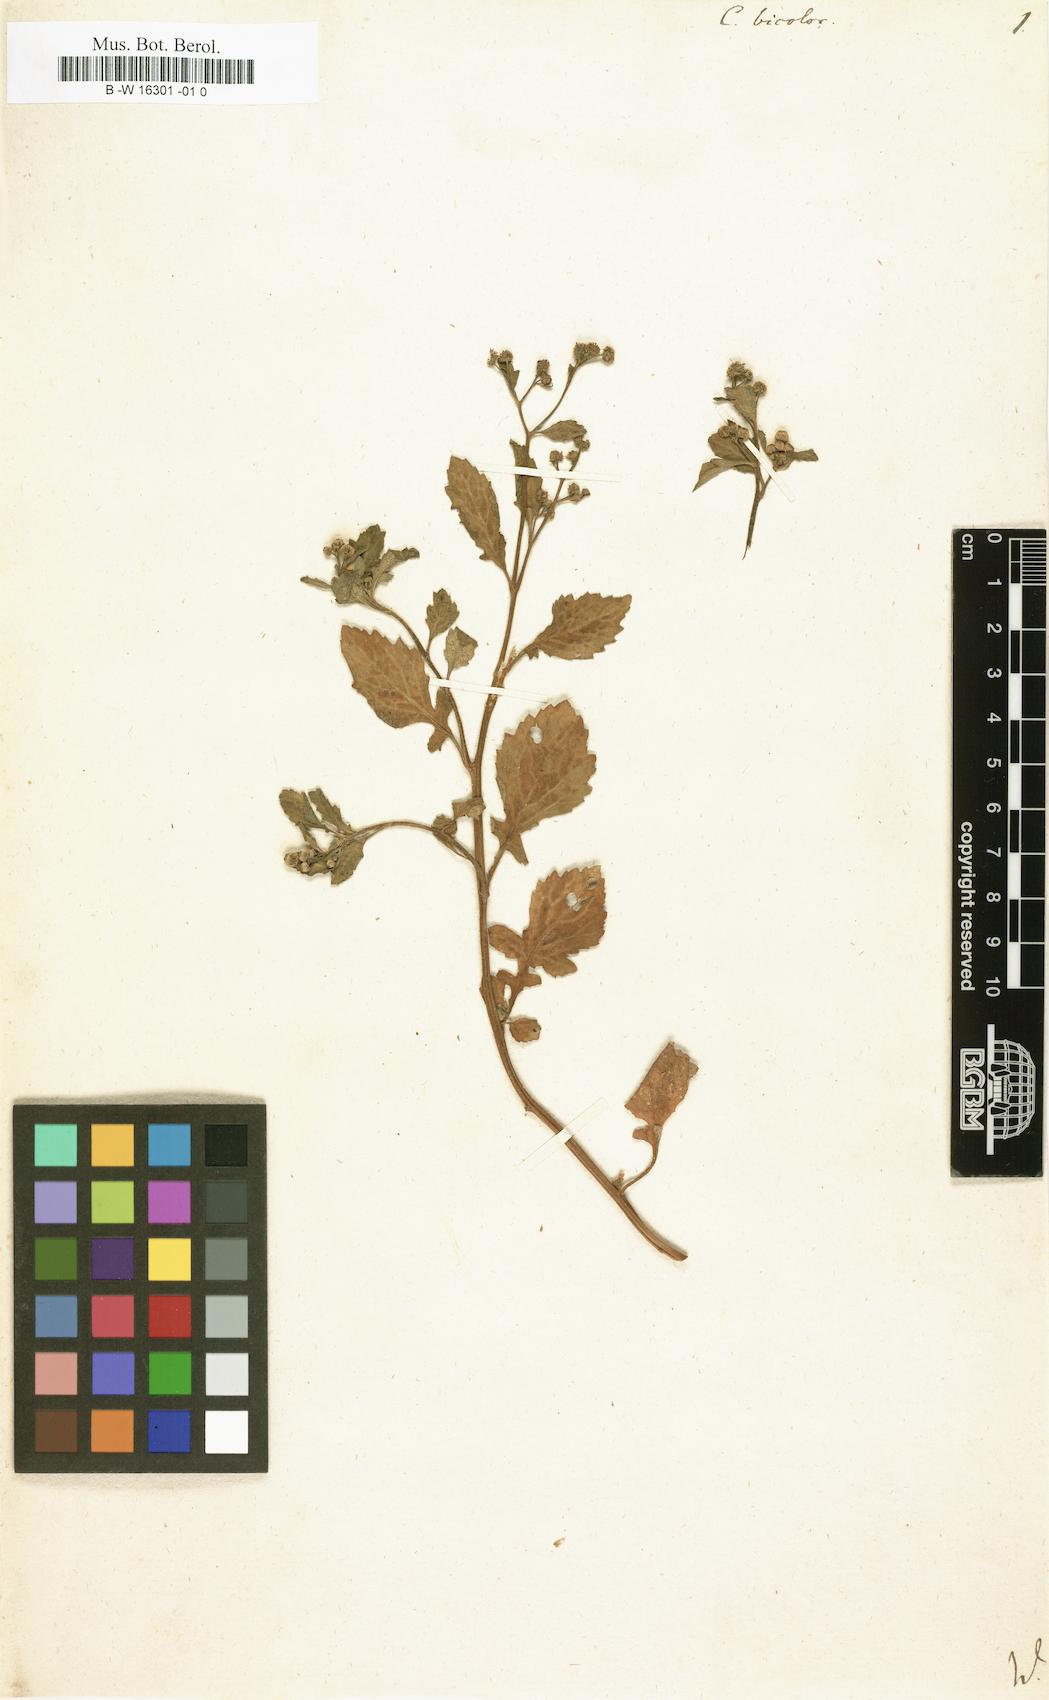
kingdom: Plantae
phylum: Tracheophyta
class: Magnoliopsida
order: Asterales
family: Asteraceae
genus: Dichrocephala
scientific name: Dichrocephala integrifolia
